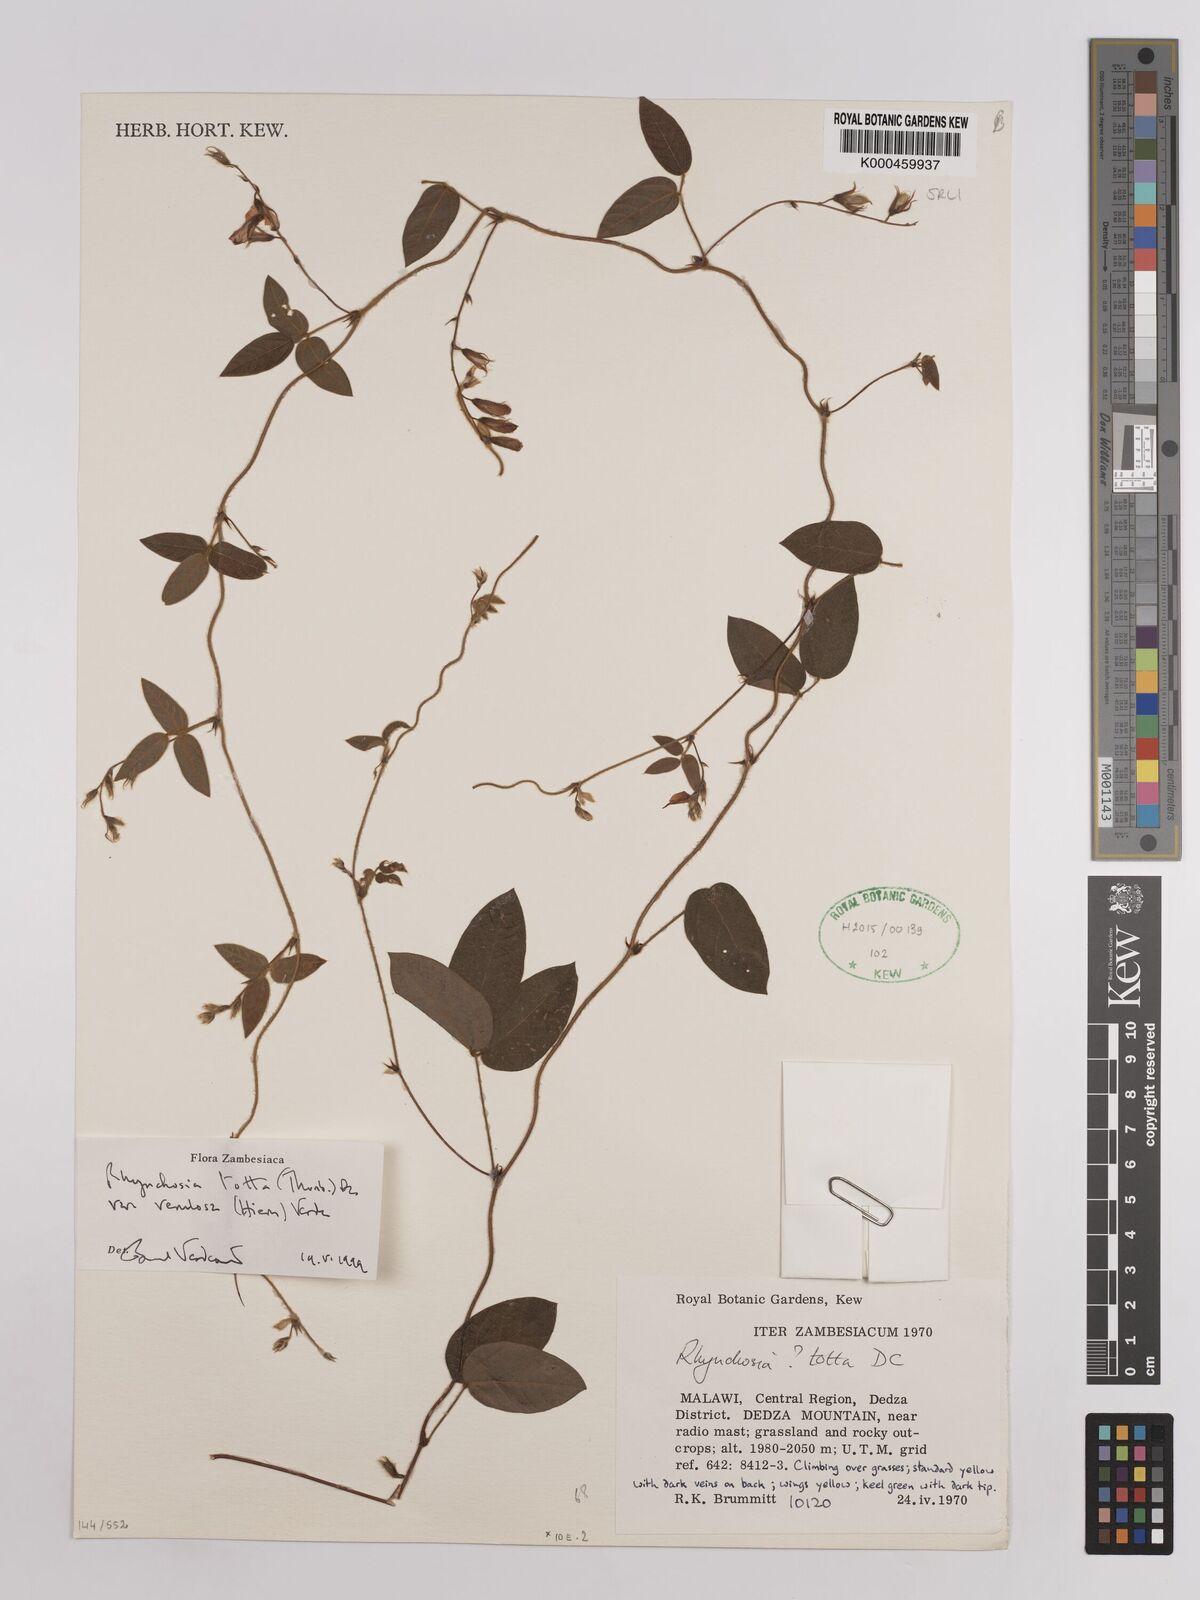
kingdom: Plantae
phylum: Tracheophyta
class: Magnoliopsida
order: Fabales
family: Fabaceae
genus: Rhynchosia
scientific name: Rhynchosia totta
